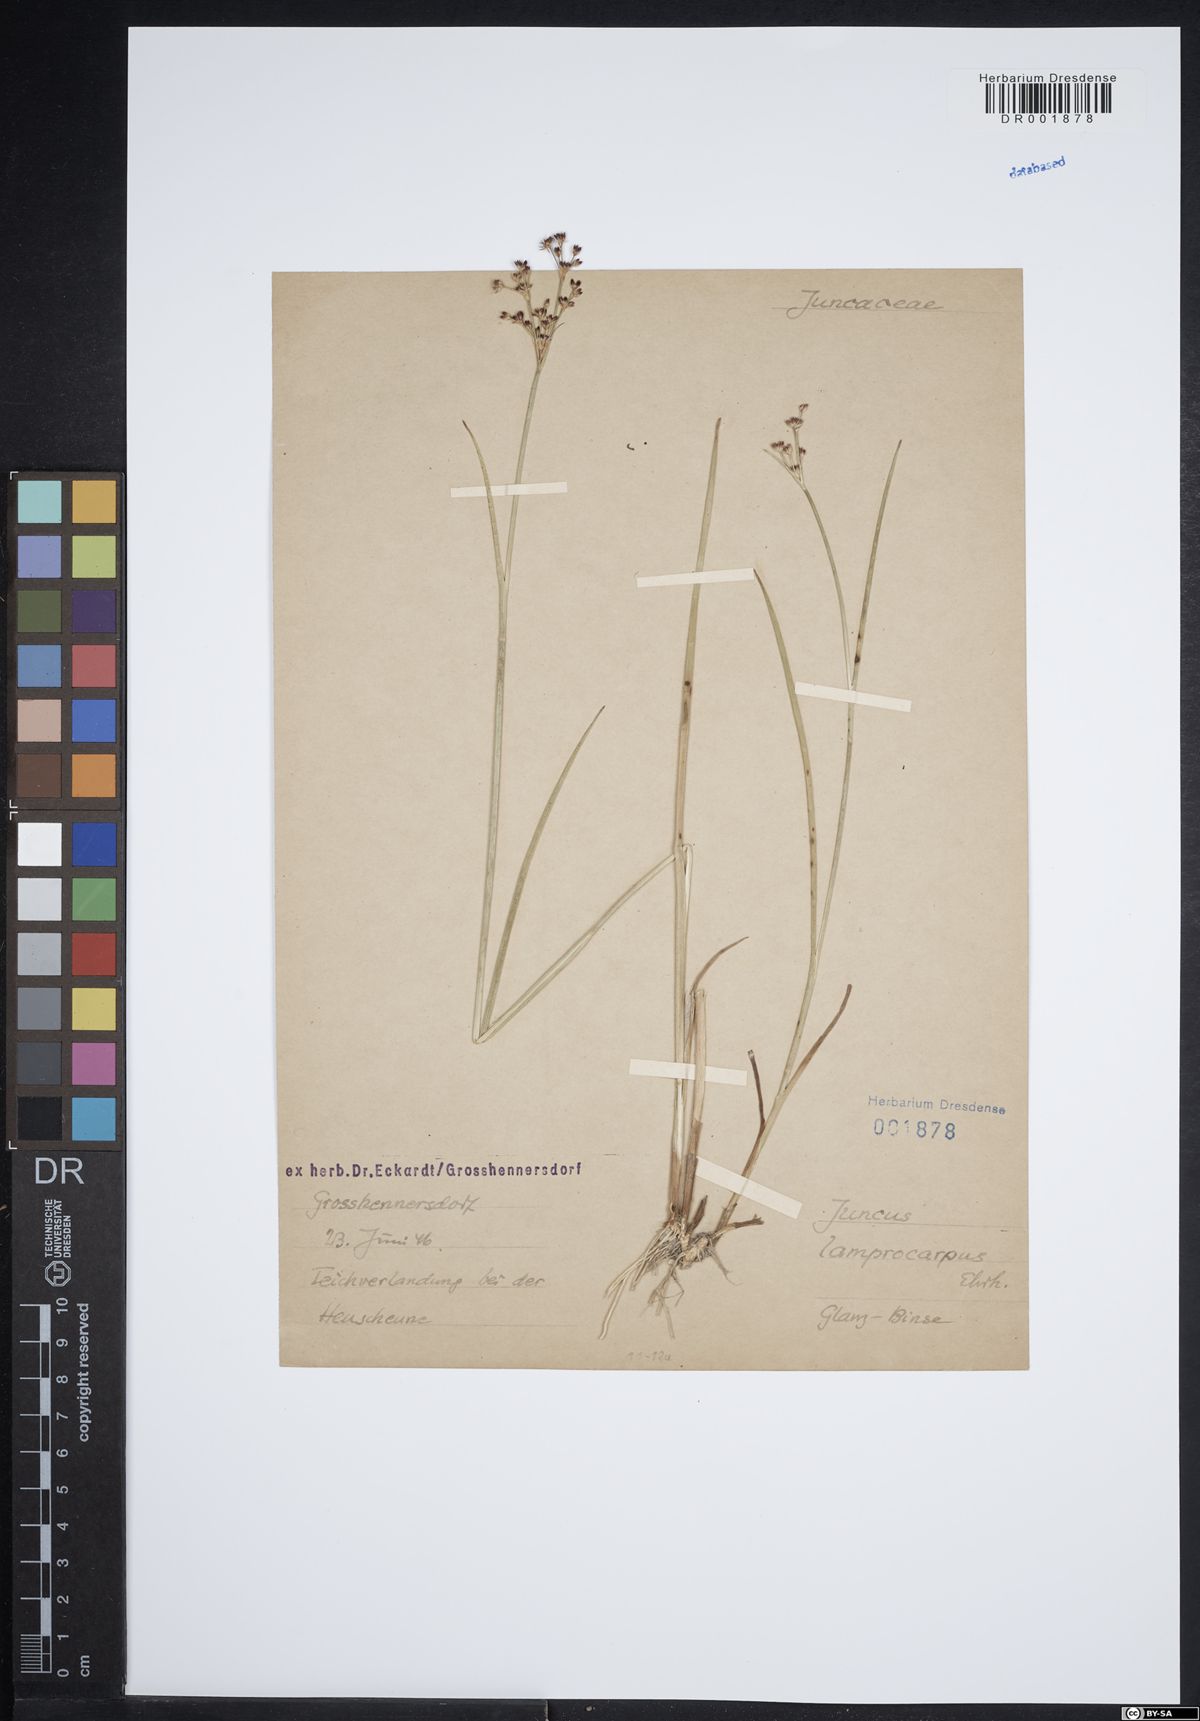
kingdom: Plantae
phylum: Tracheophyta
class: Liliopsida
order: Poales
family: Juncaceae
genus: Juncus
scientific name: Juncus articulatus
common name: Jointed rush
